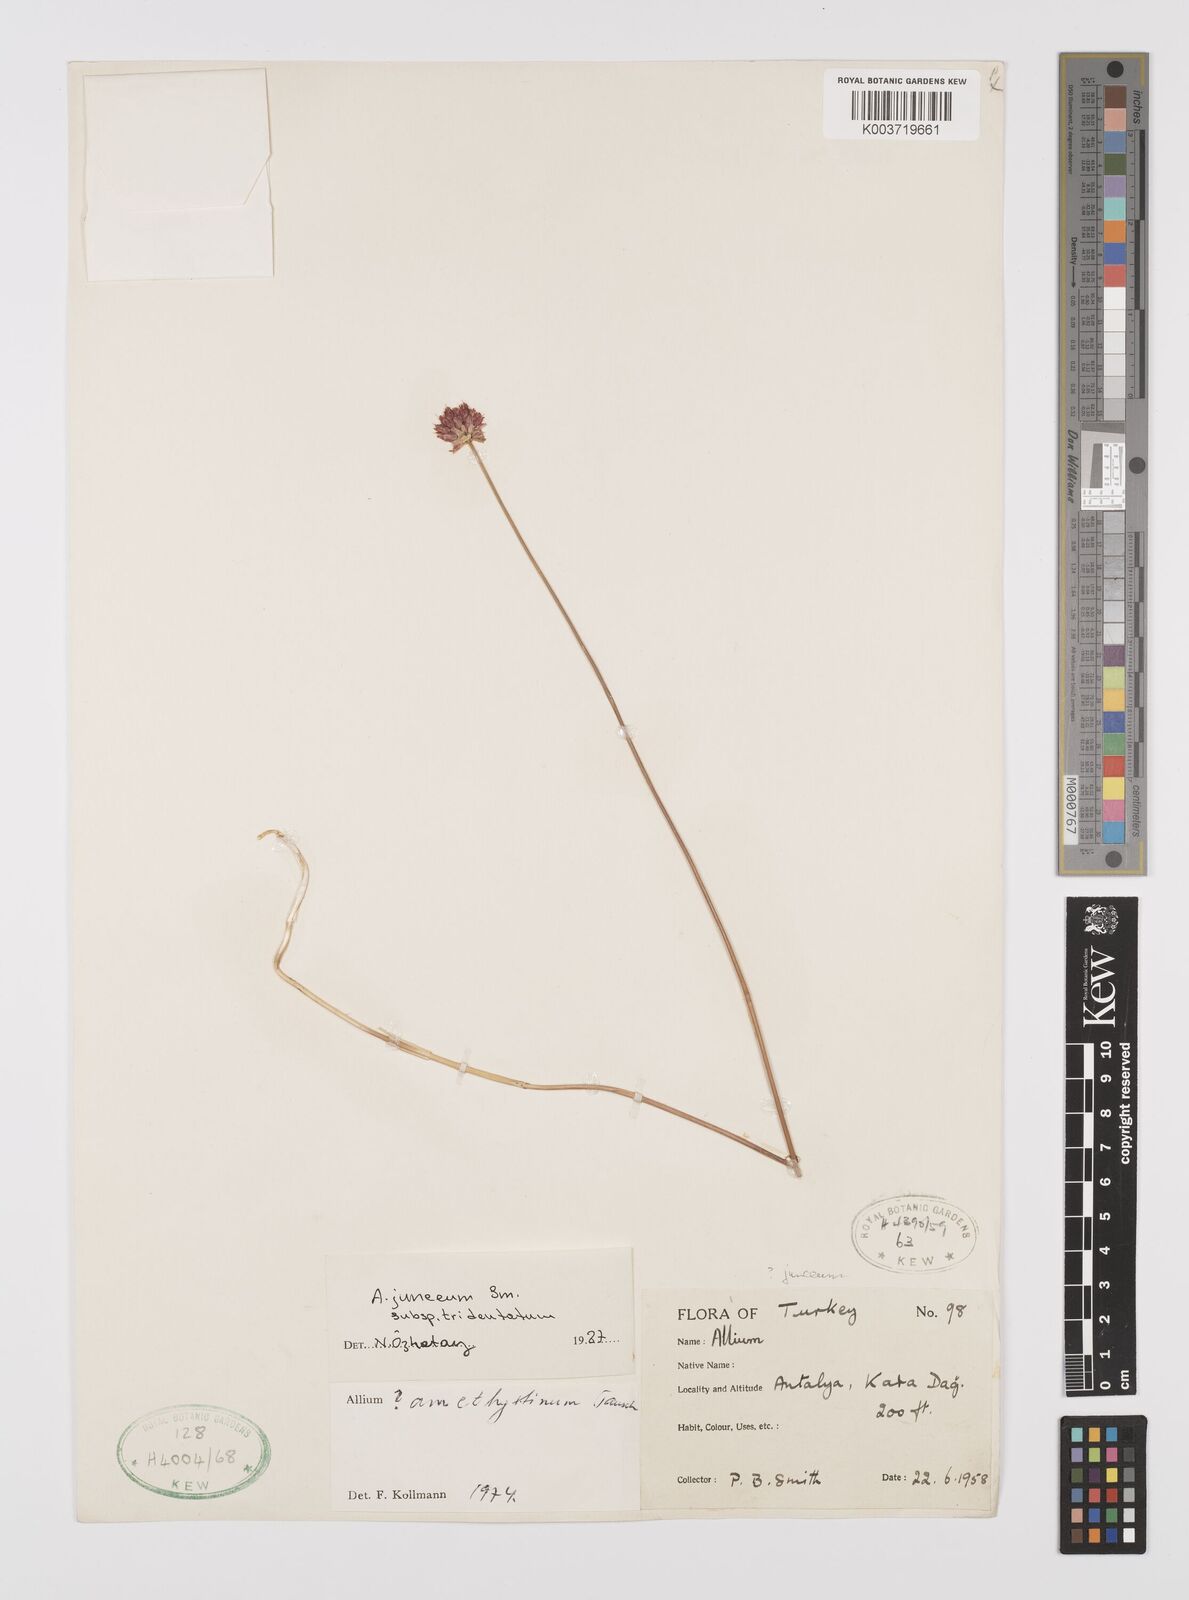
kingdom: Plantae
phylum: Tracheophyta
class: Liliopsida
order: Asparagales
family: Amaryllidaceae
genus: Allium
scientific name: Allium junceum
